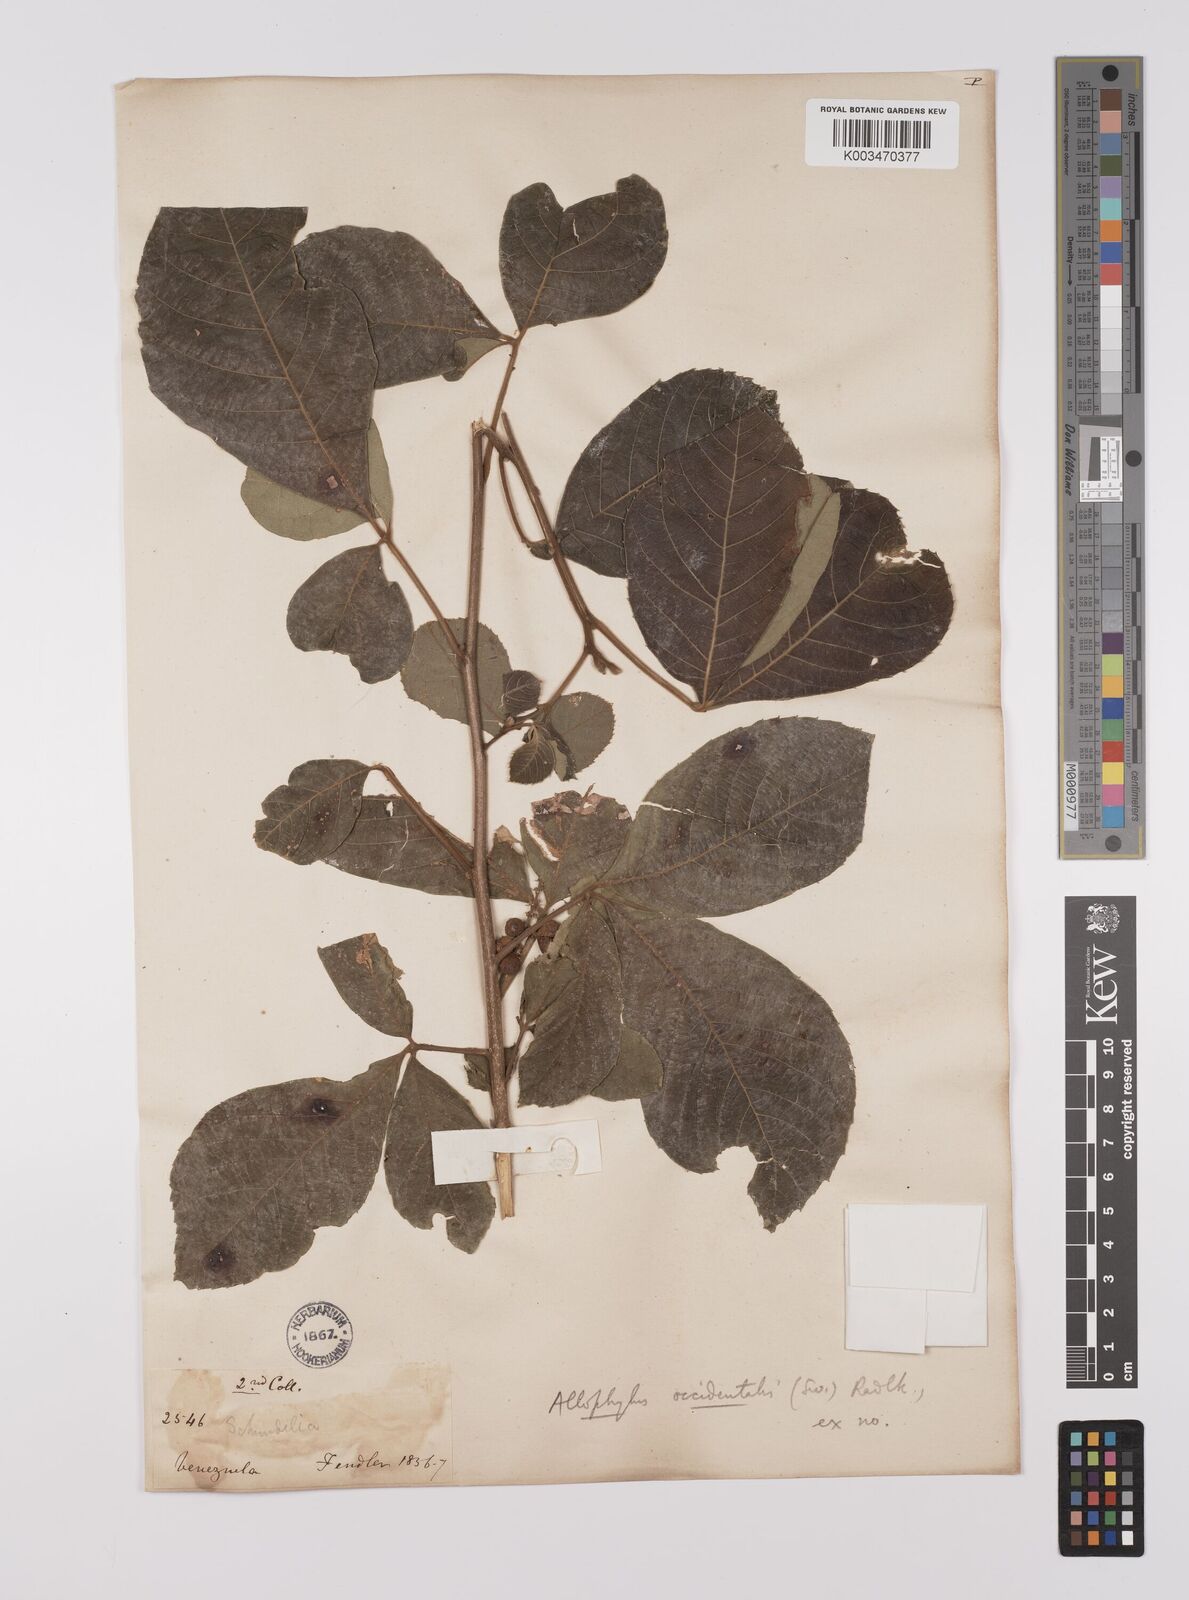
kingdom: Plantae
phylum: Tracheophyta
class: Magnoliopsida
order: Sapindales
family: Sapindaceae
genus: Allophylus
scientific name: Allophylus
